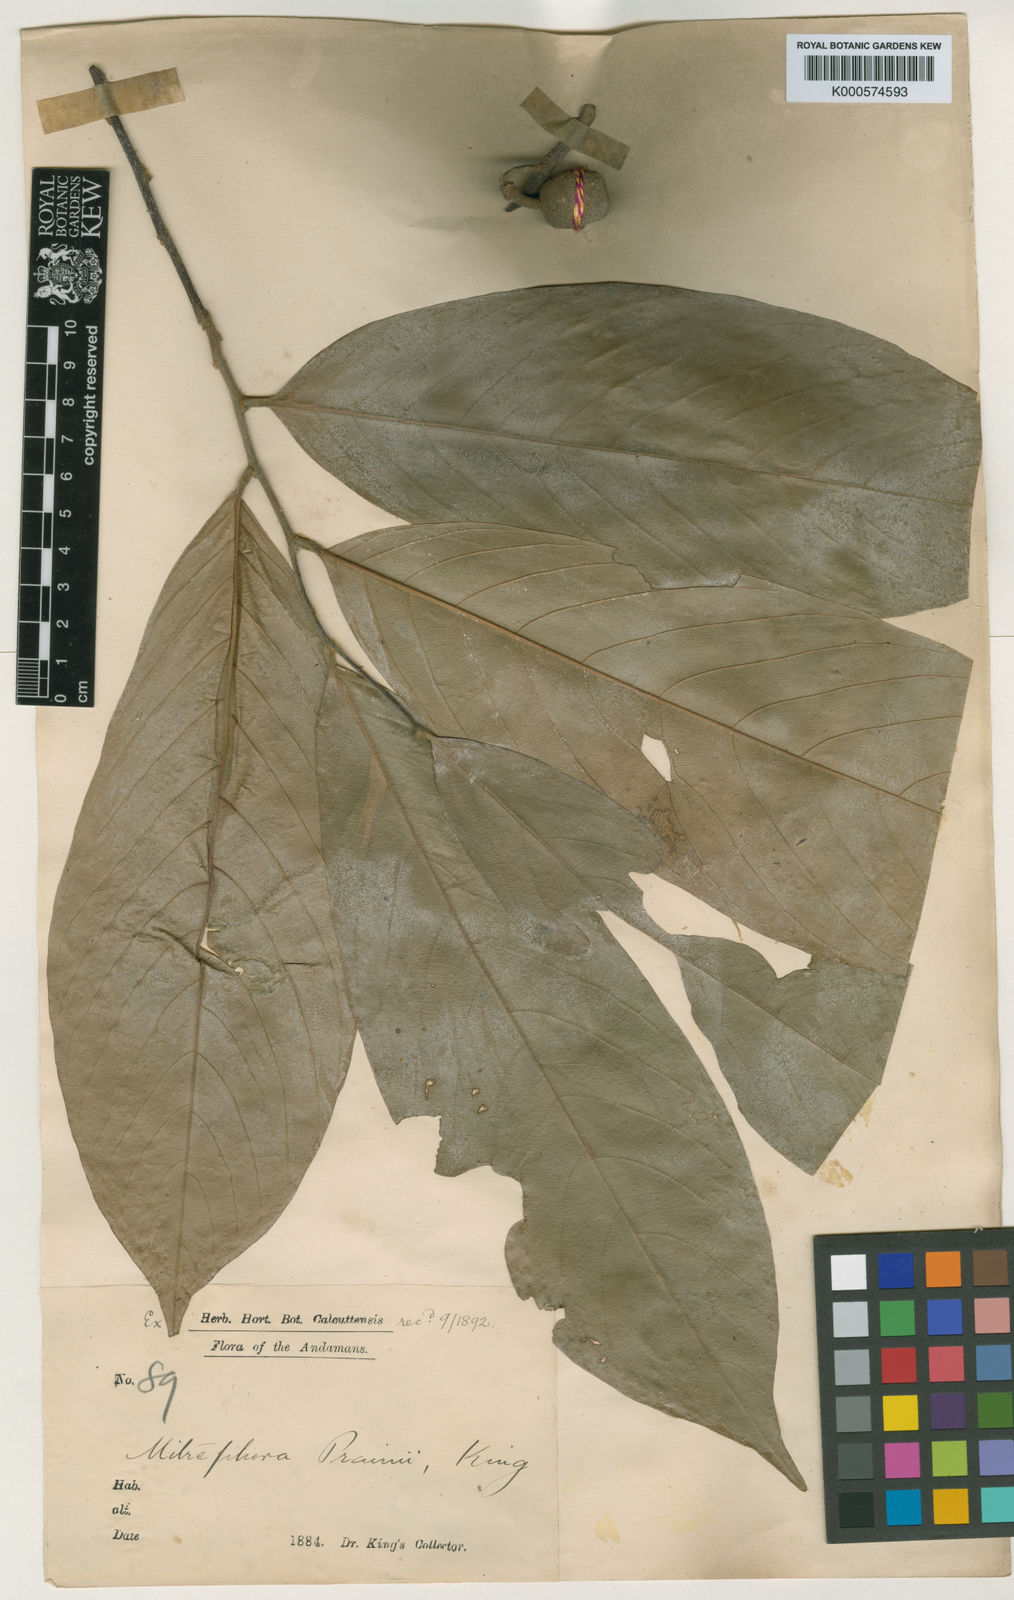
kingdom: Plantae
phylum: Tracheophyta
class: Magnoliopsida
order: Magnoliales
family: Annonaceae
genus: Pseuduvaria
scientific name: Pseuduvaria prainii
